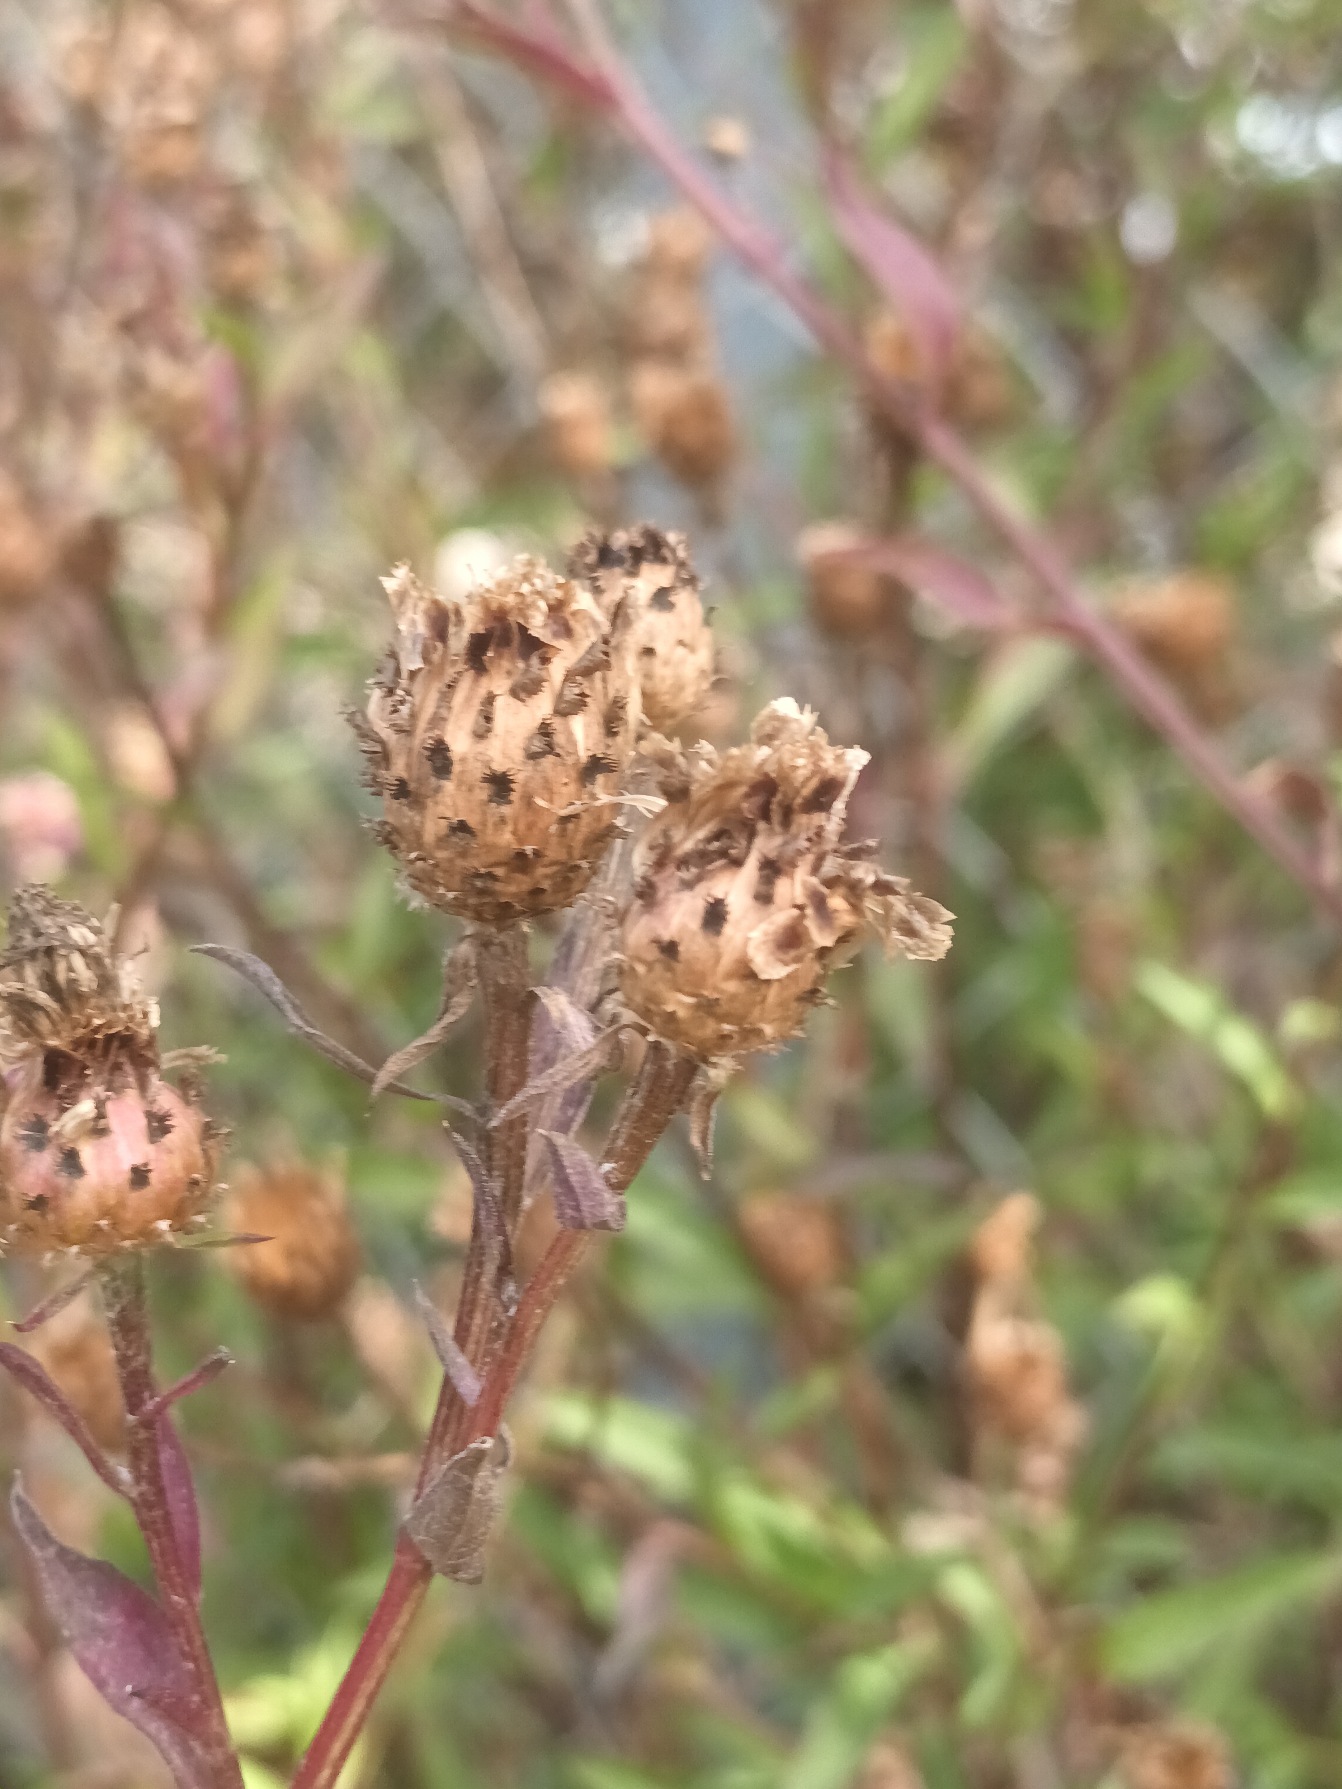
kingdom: Plantae
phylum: Tracheophyta
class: Magnoliopsida
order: Asterales
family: Asteraceae
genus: Centaurea
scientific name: Centaurea debeauxii
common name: Lundknopurt
